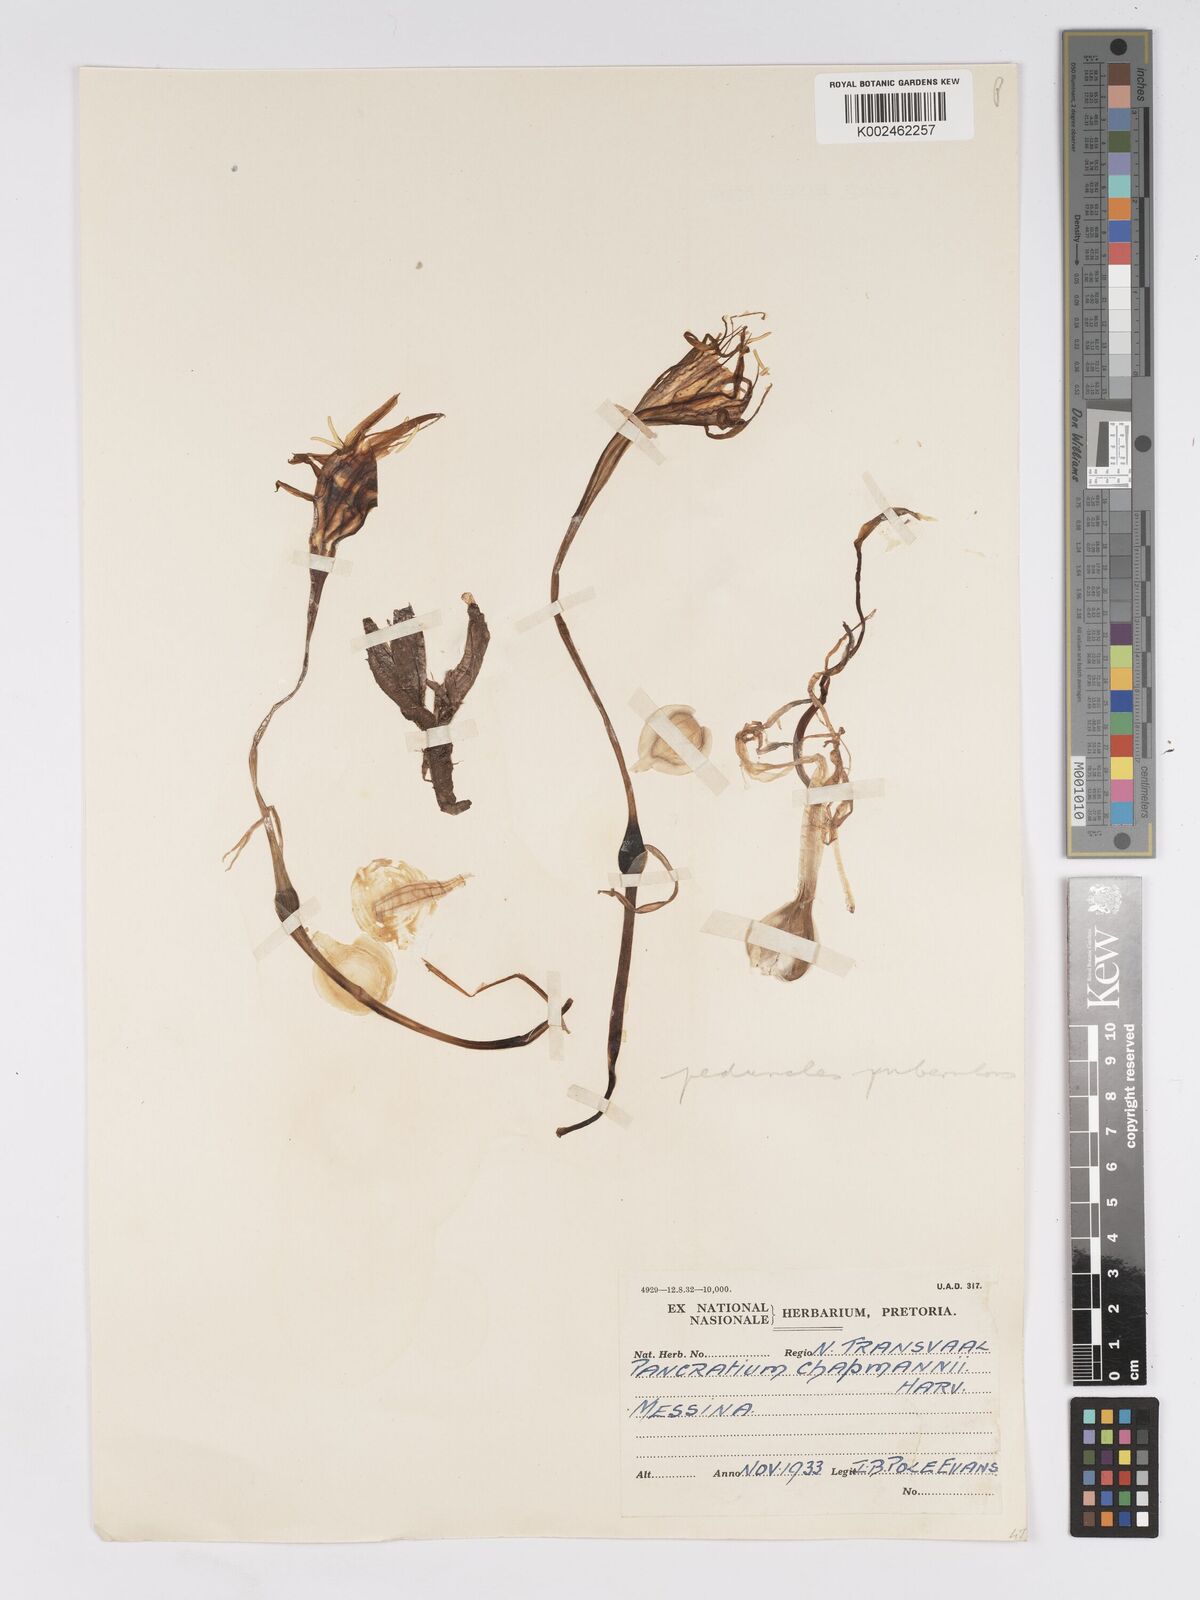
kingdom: Plantae
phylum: Tracheophyta
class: Liliopsida
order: Asparagales
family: Amaryllidaceae
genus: Pancratium
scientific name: Pancratium tenuifolium
